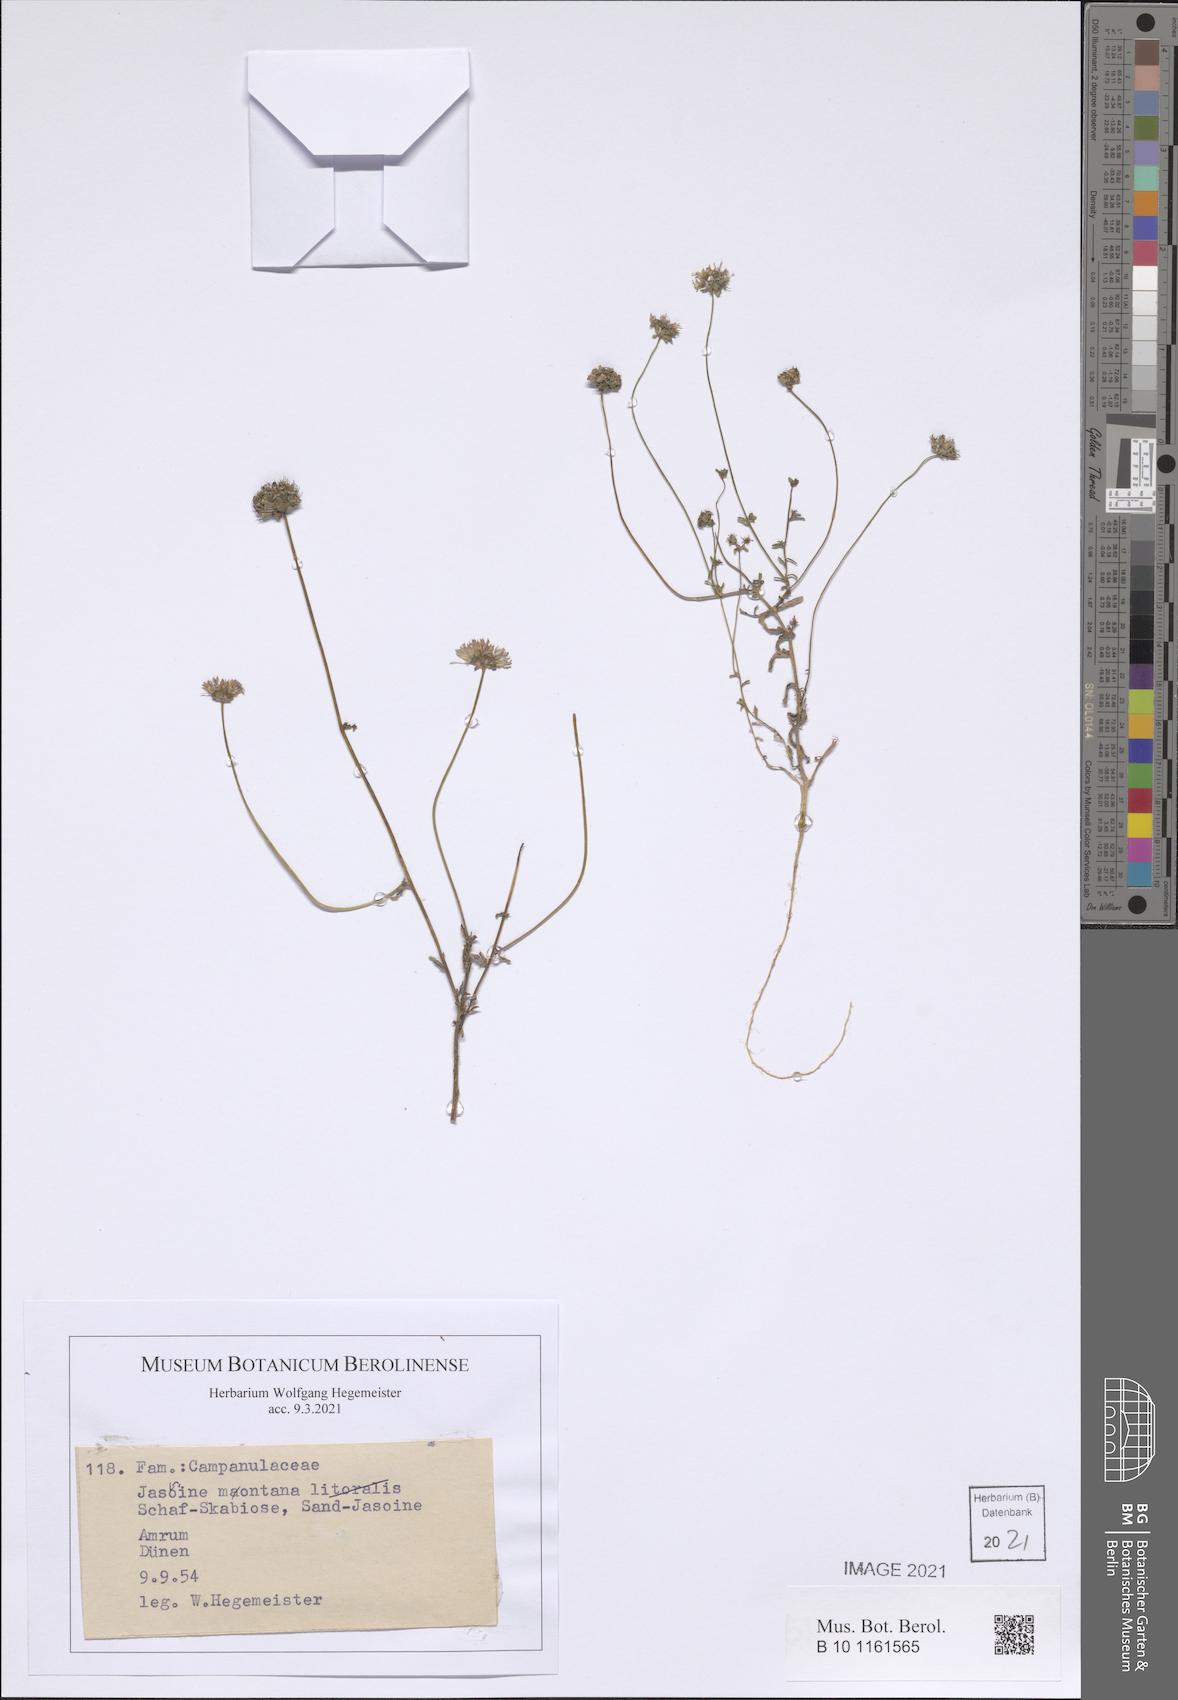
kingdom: Plantae
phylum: Tracheophyta
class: Magnoliopsida
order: Asterales
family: Campanulaceae
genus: Jasione
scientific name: Jasione montana
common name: Sheep's-bit
